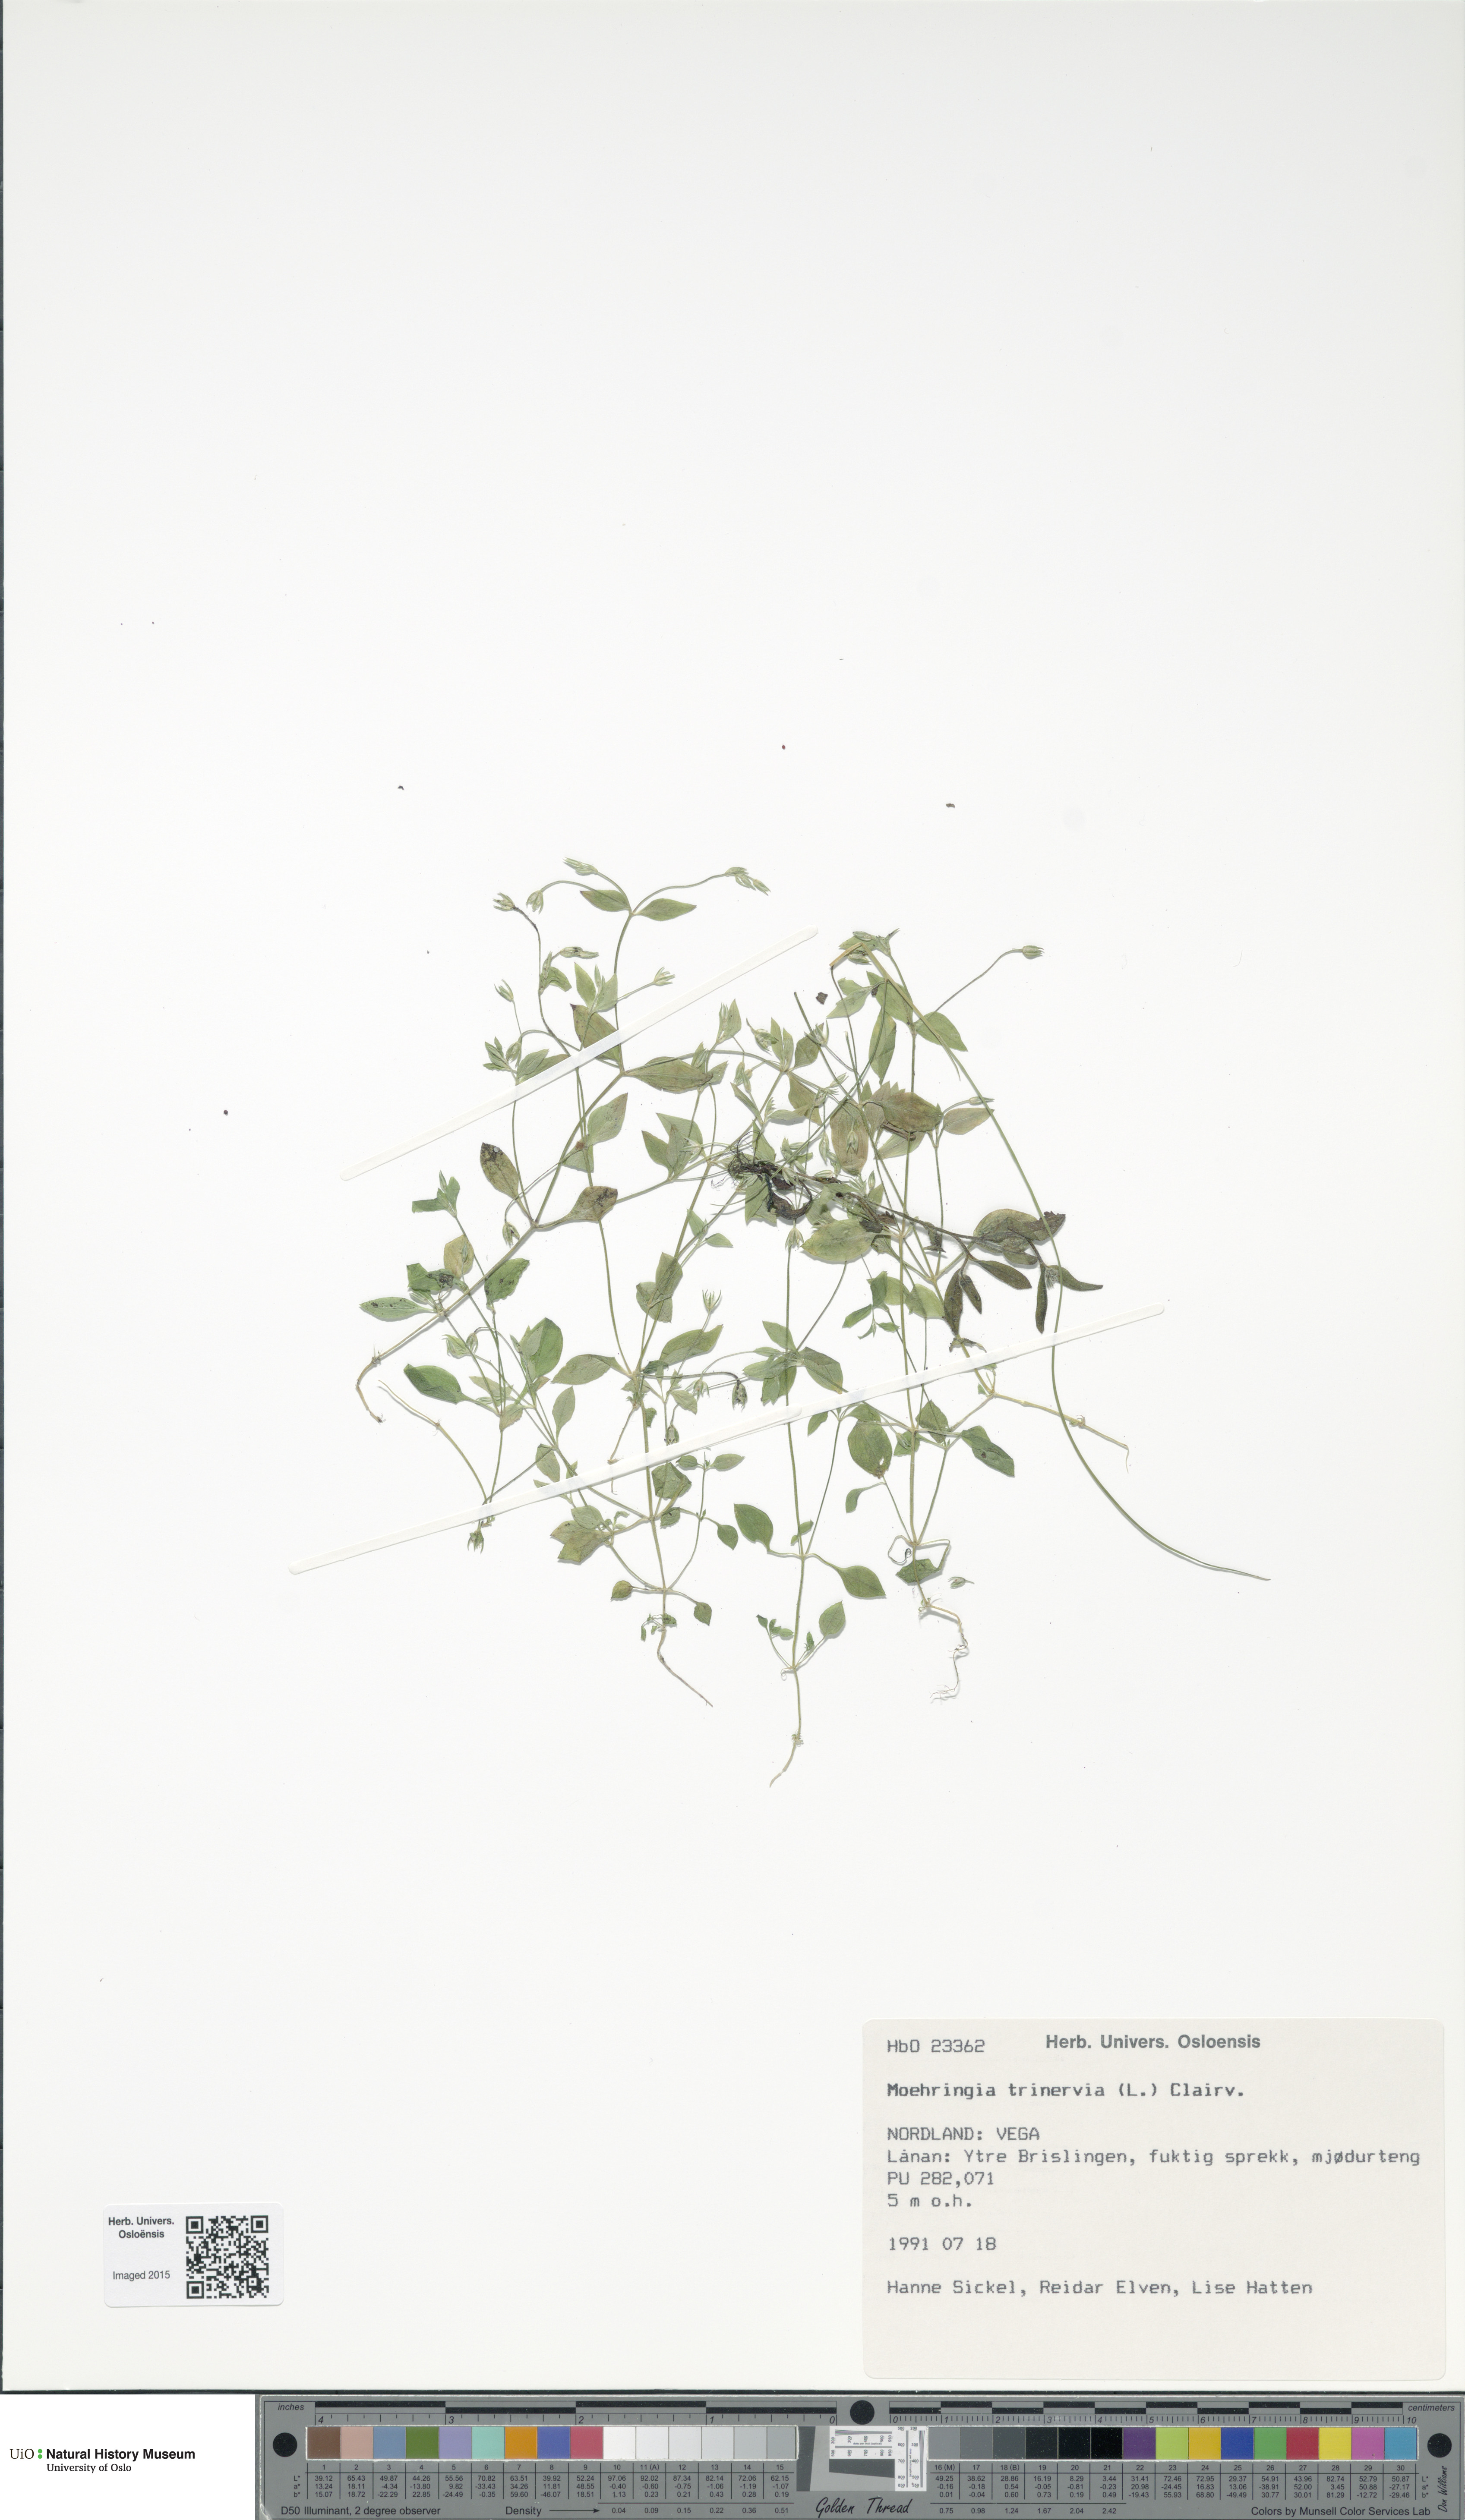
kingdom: Plantae
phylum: Tracheophyta
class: Magnoliopsida
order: Caryophyllales
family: Caryophyllaceae
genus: Moehringia
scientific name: Moehringia trinervia
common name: Three-nerved sandwort
